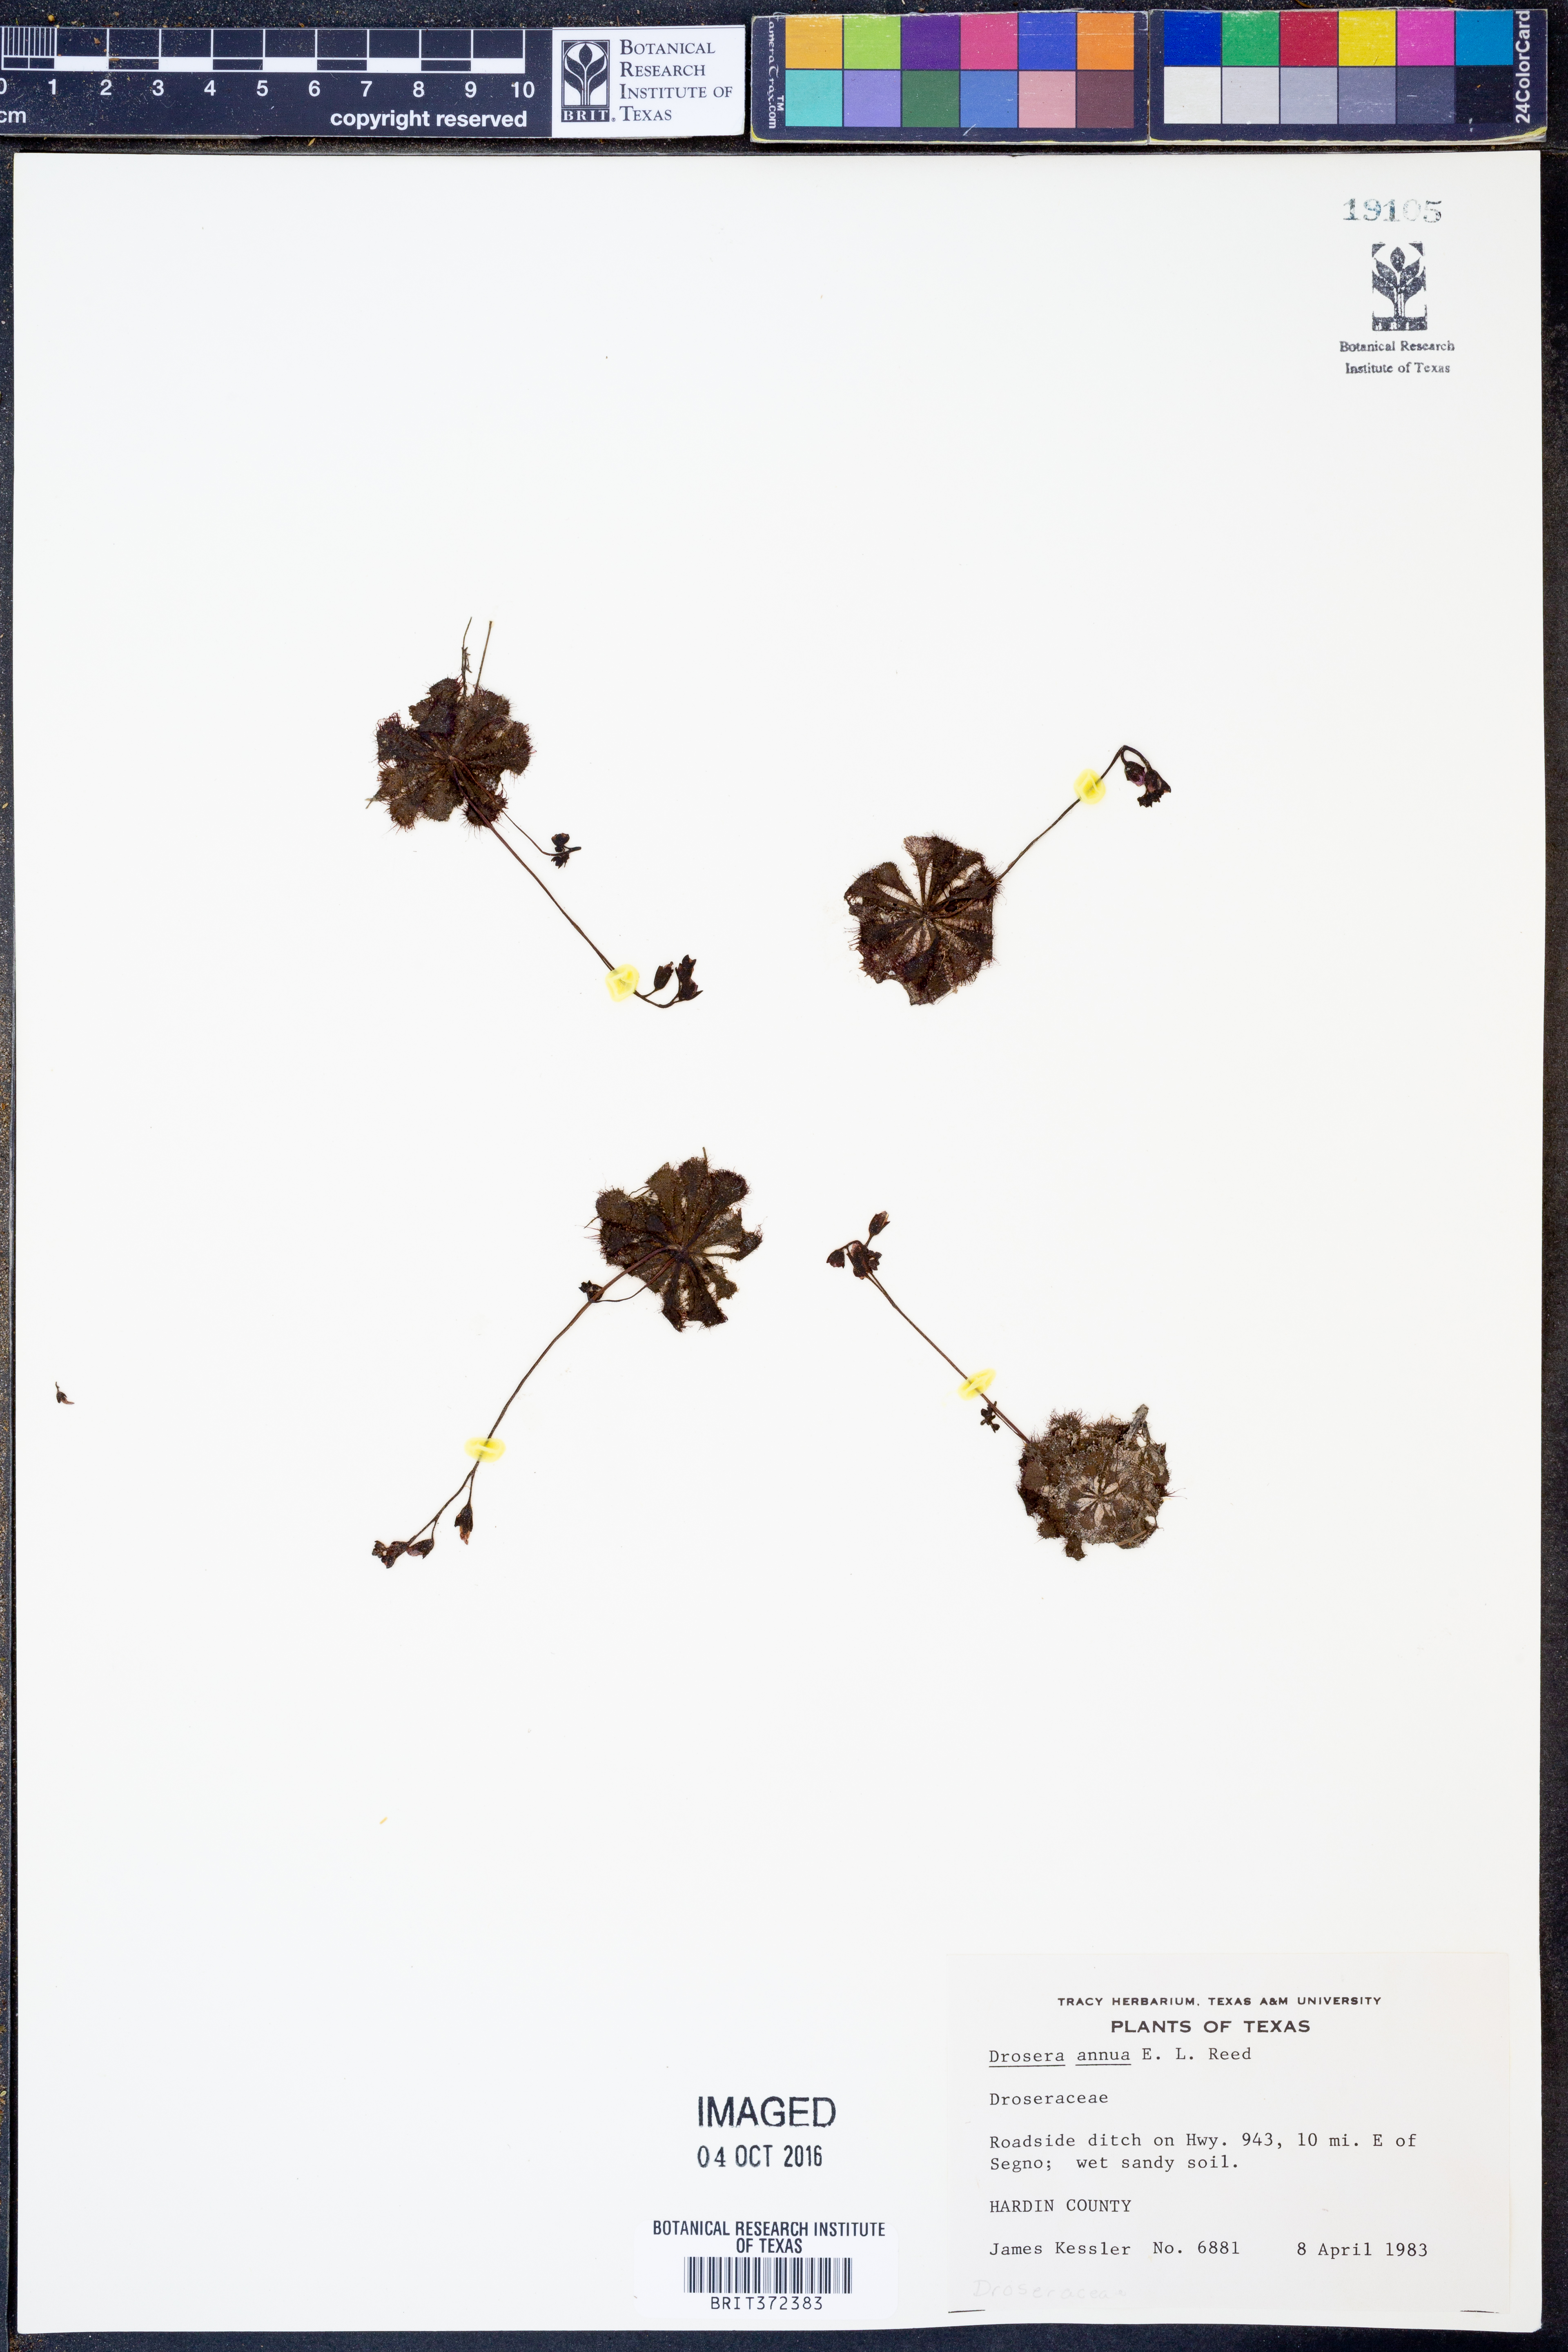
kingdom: Plantae
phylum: Tracheophyta
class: Magnoliopsida
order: Caryophyllales
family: Droseraceae
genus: Drosera
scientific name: Drosera brevifolia
